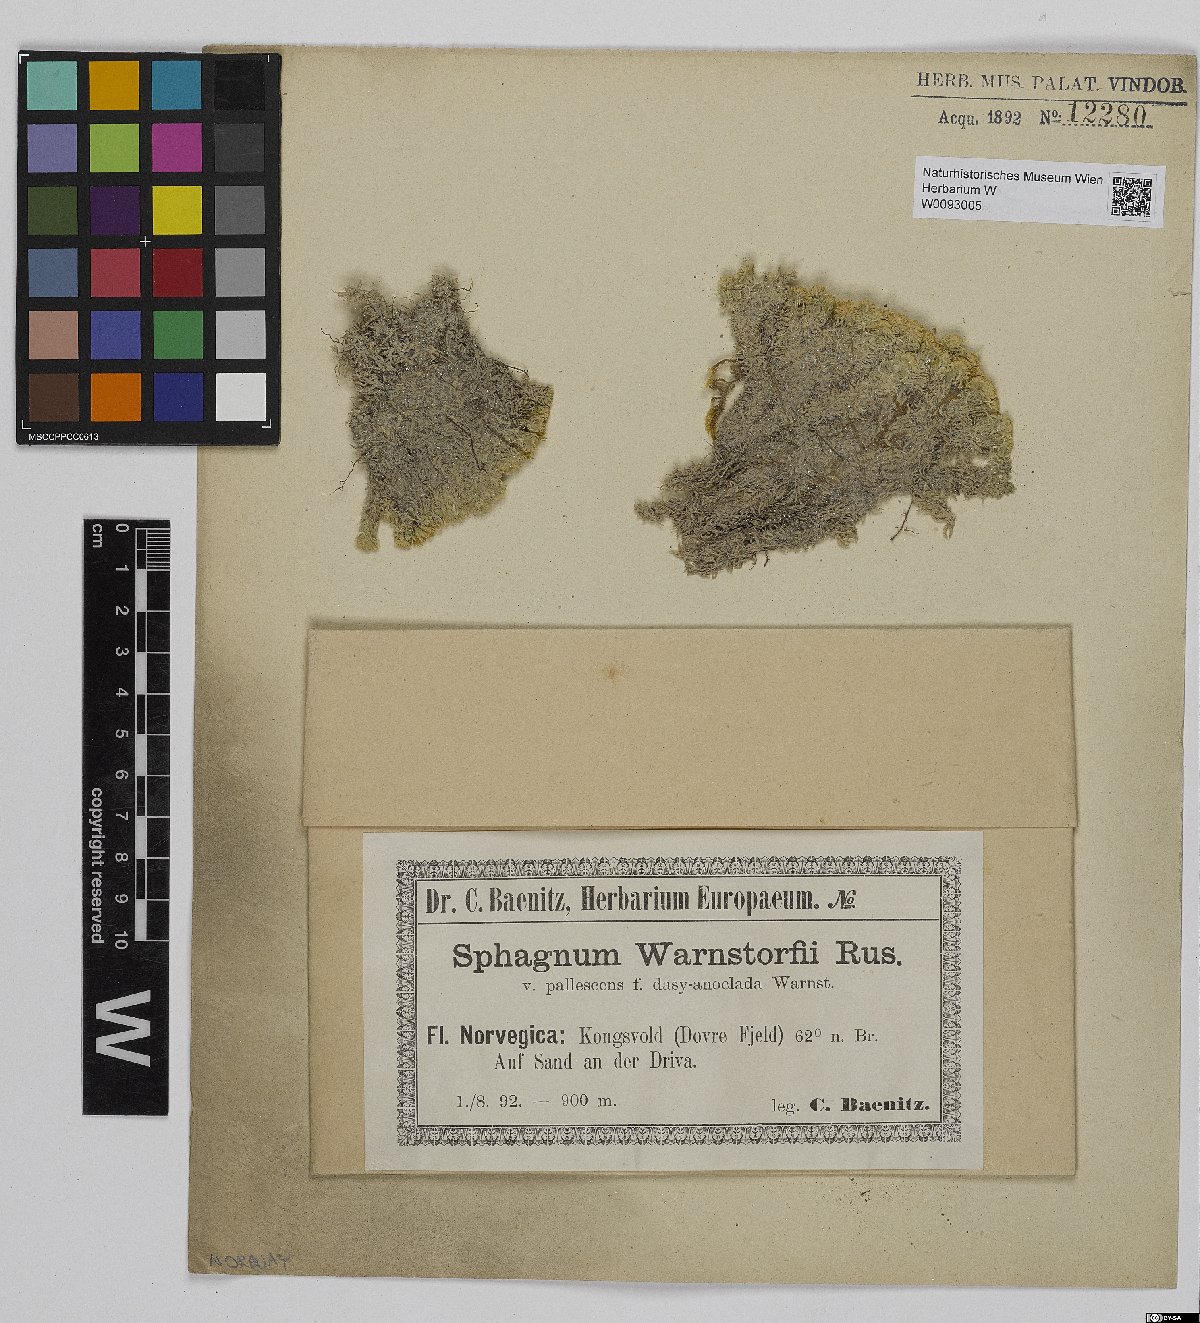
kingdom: Plantae
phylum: Bryophyta
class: Sphagnopsida
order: Sphagnales
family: Sphagnaceae
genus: Sphagnum
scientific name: Sphagnum warnstorfii
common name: Warnstorf's peat moss
